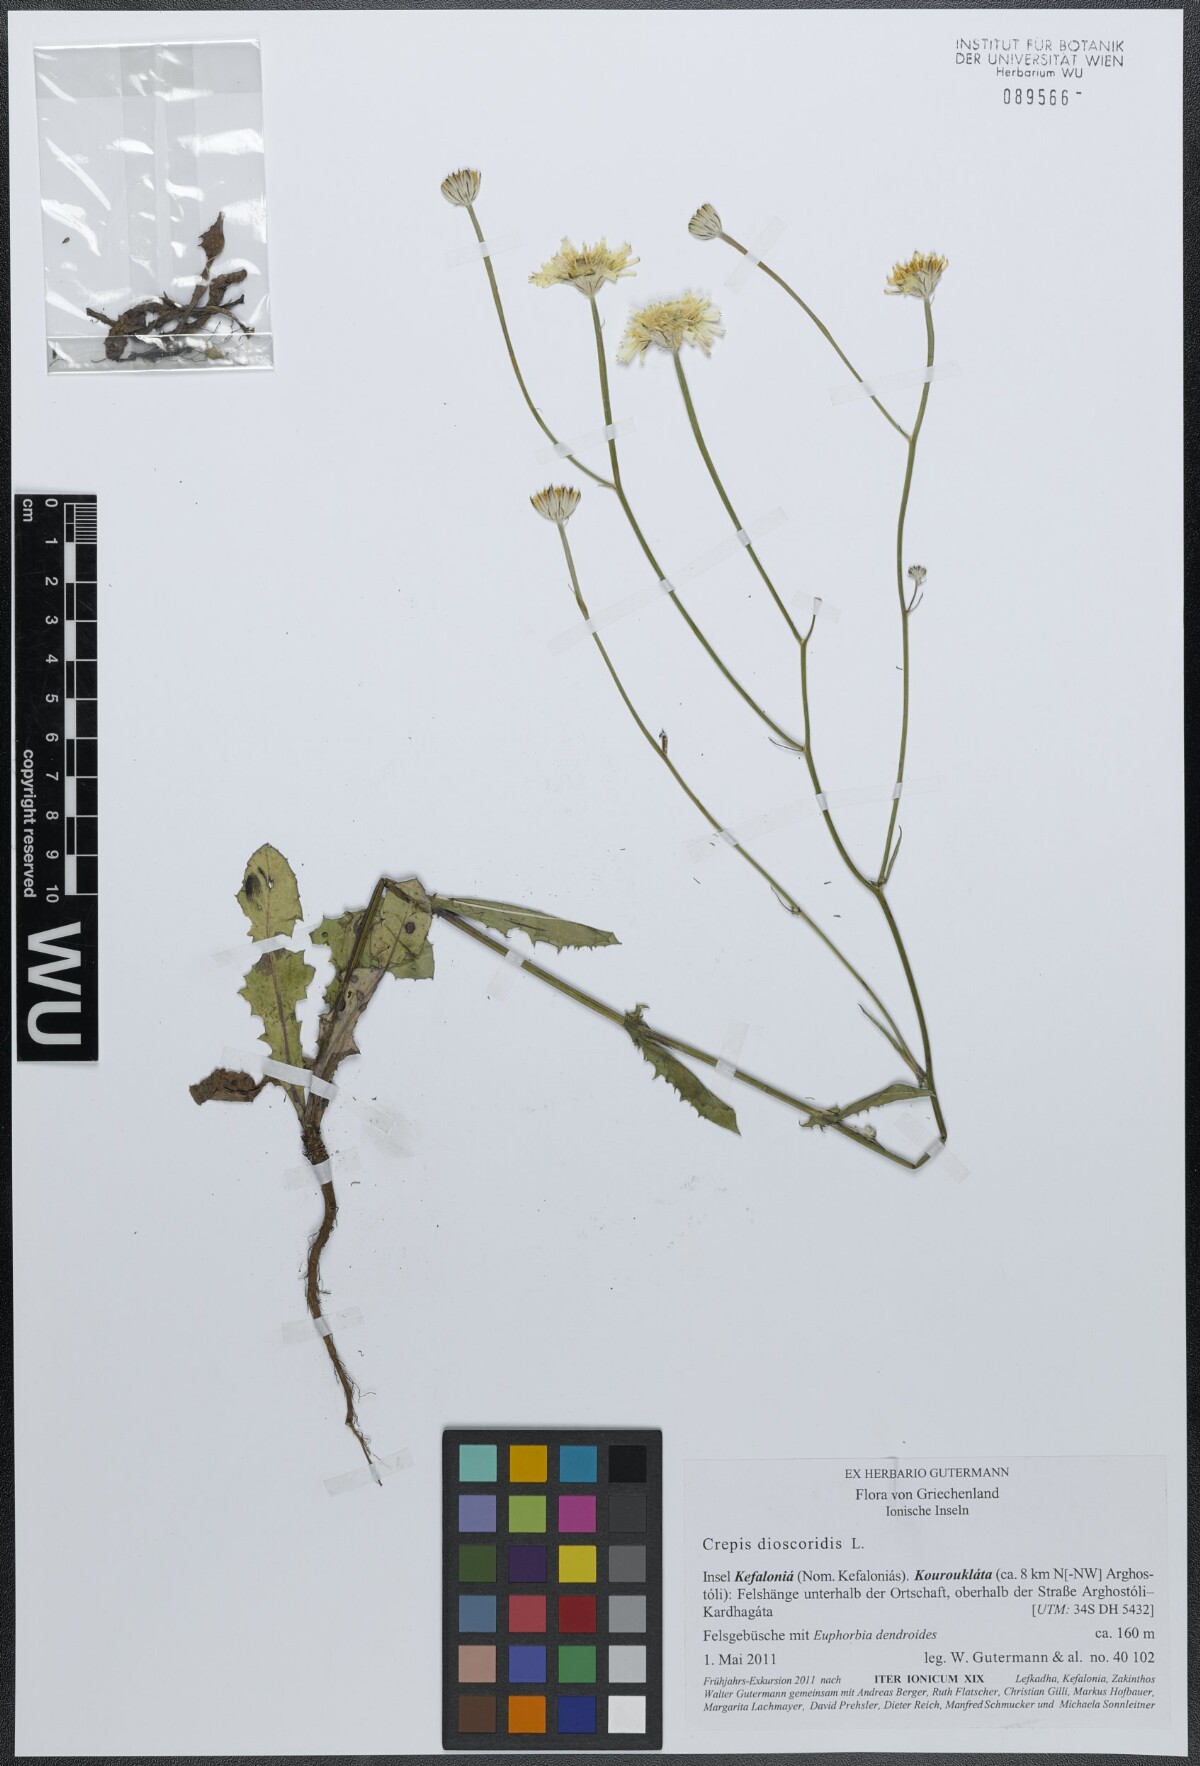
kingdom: Plantae
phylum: Tracheophyta
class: Magnoliopsida
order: Asterales
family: Asteraceae
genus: Crepis
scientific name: Crepis dioscoridis
